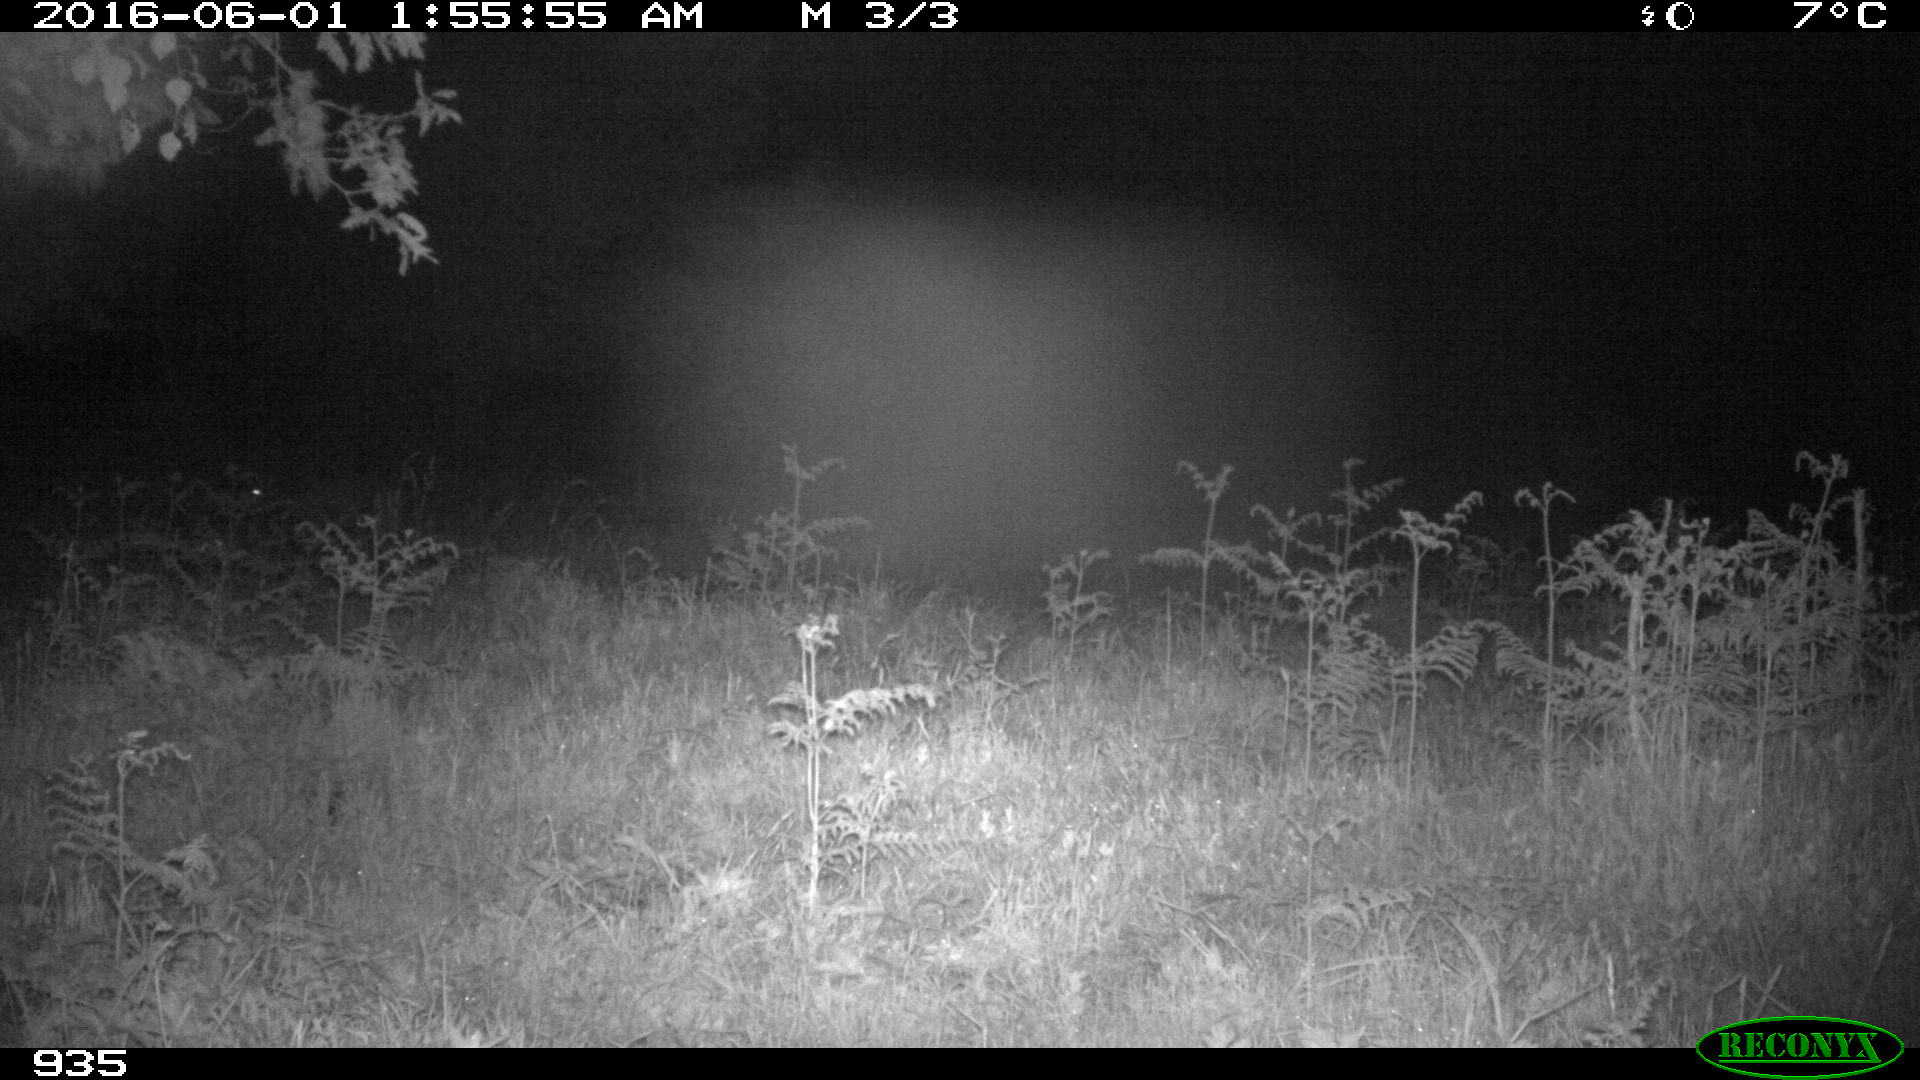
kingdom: Animalia
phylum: Chordata
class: Mammalia
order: Artiodactyla
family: Cervidae
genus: Capreolus
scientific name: Capreolus capreolus
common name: Western roe deer
